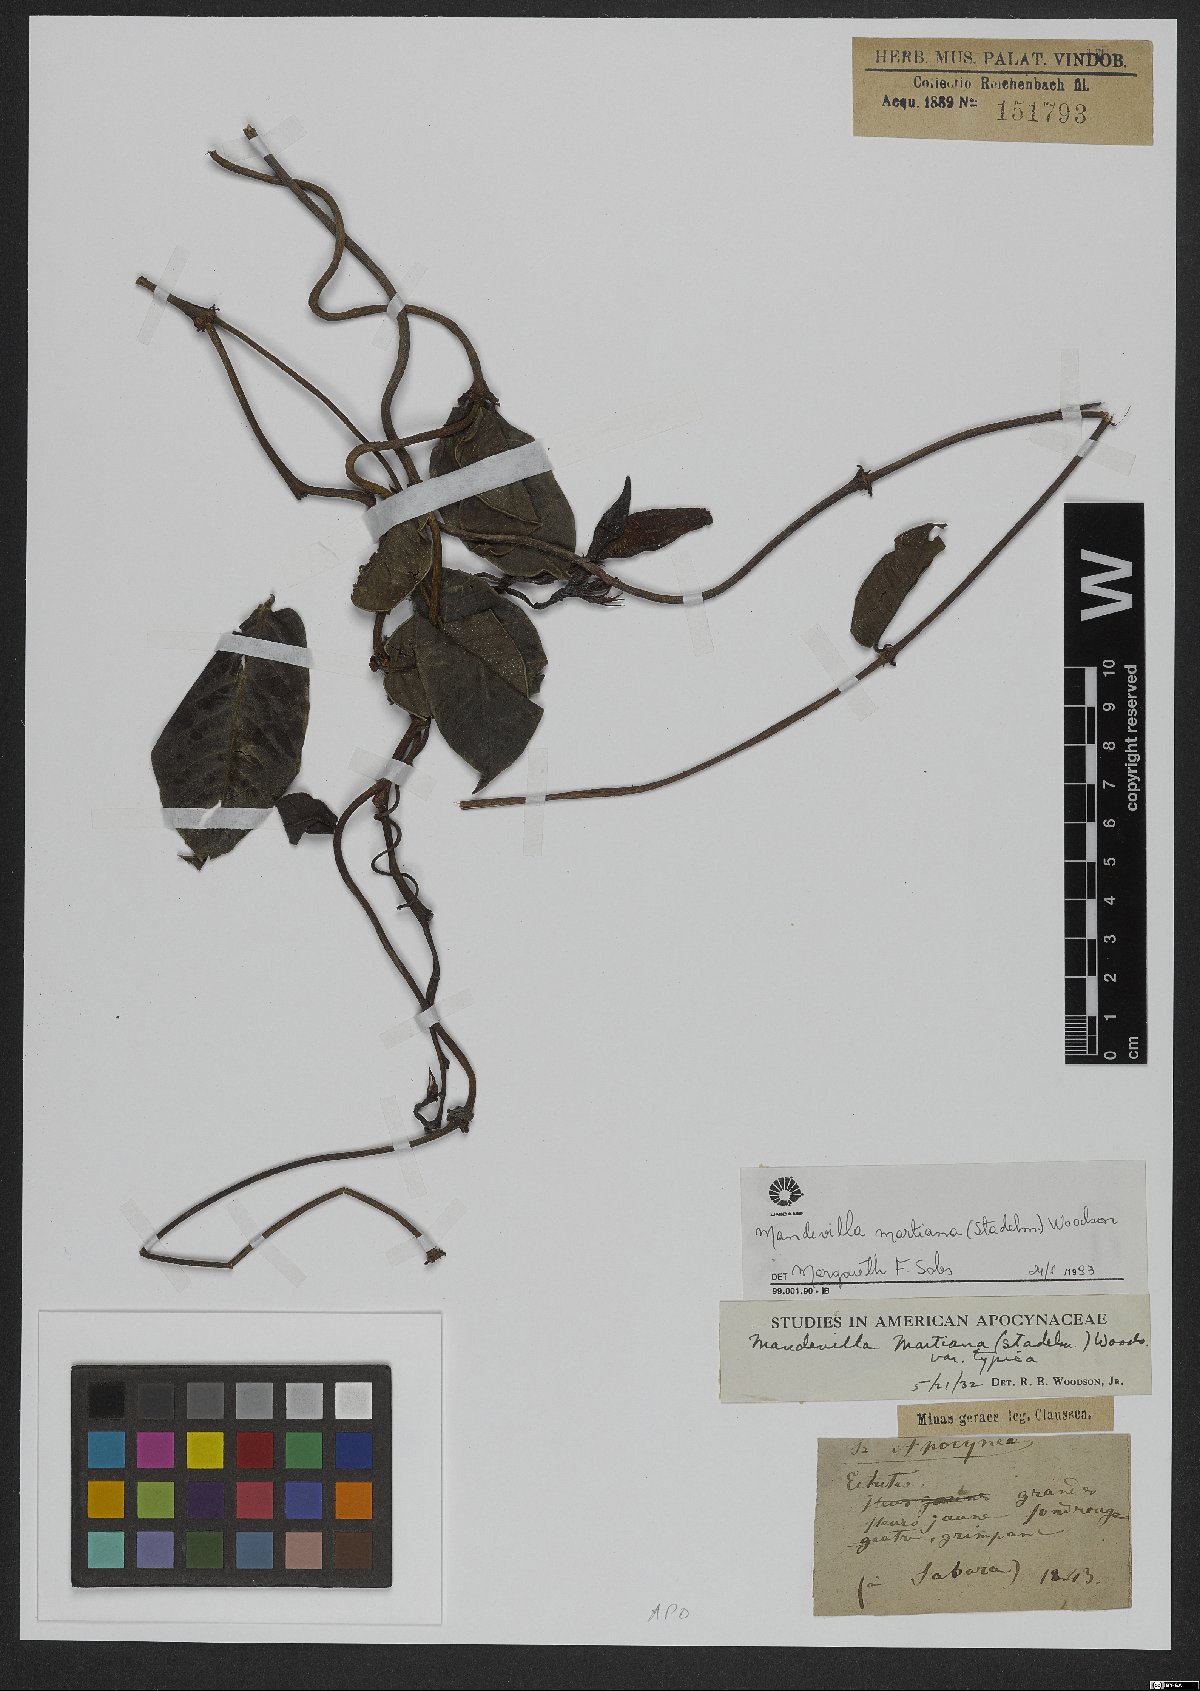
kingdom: Plantae
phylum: Tracheophyta
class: Magnoliopsida
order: Gentianales
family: Apocynaceae
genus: Mandevilla
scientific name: Mandevilla martiana
